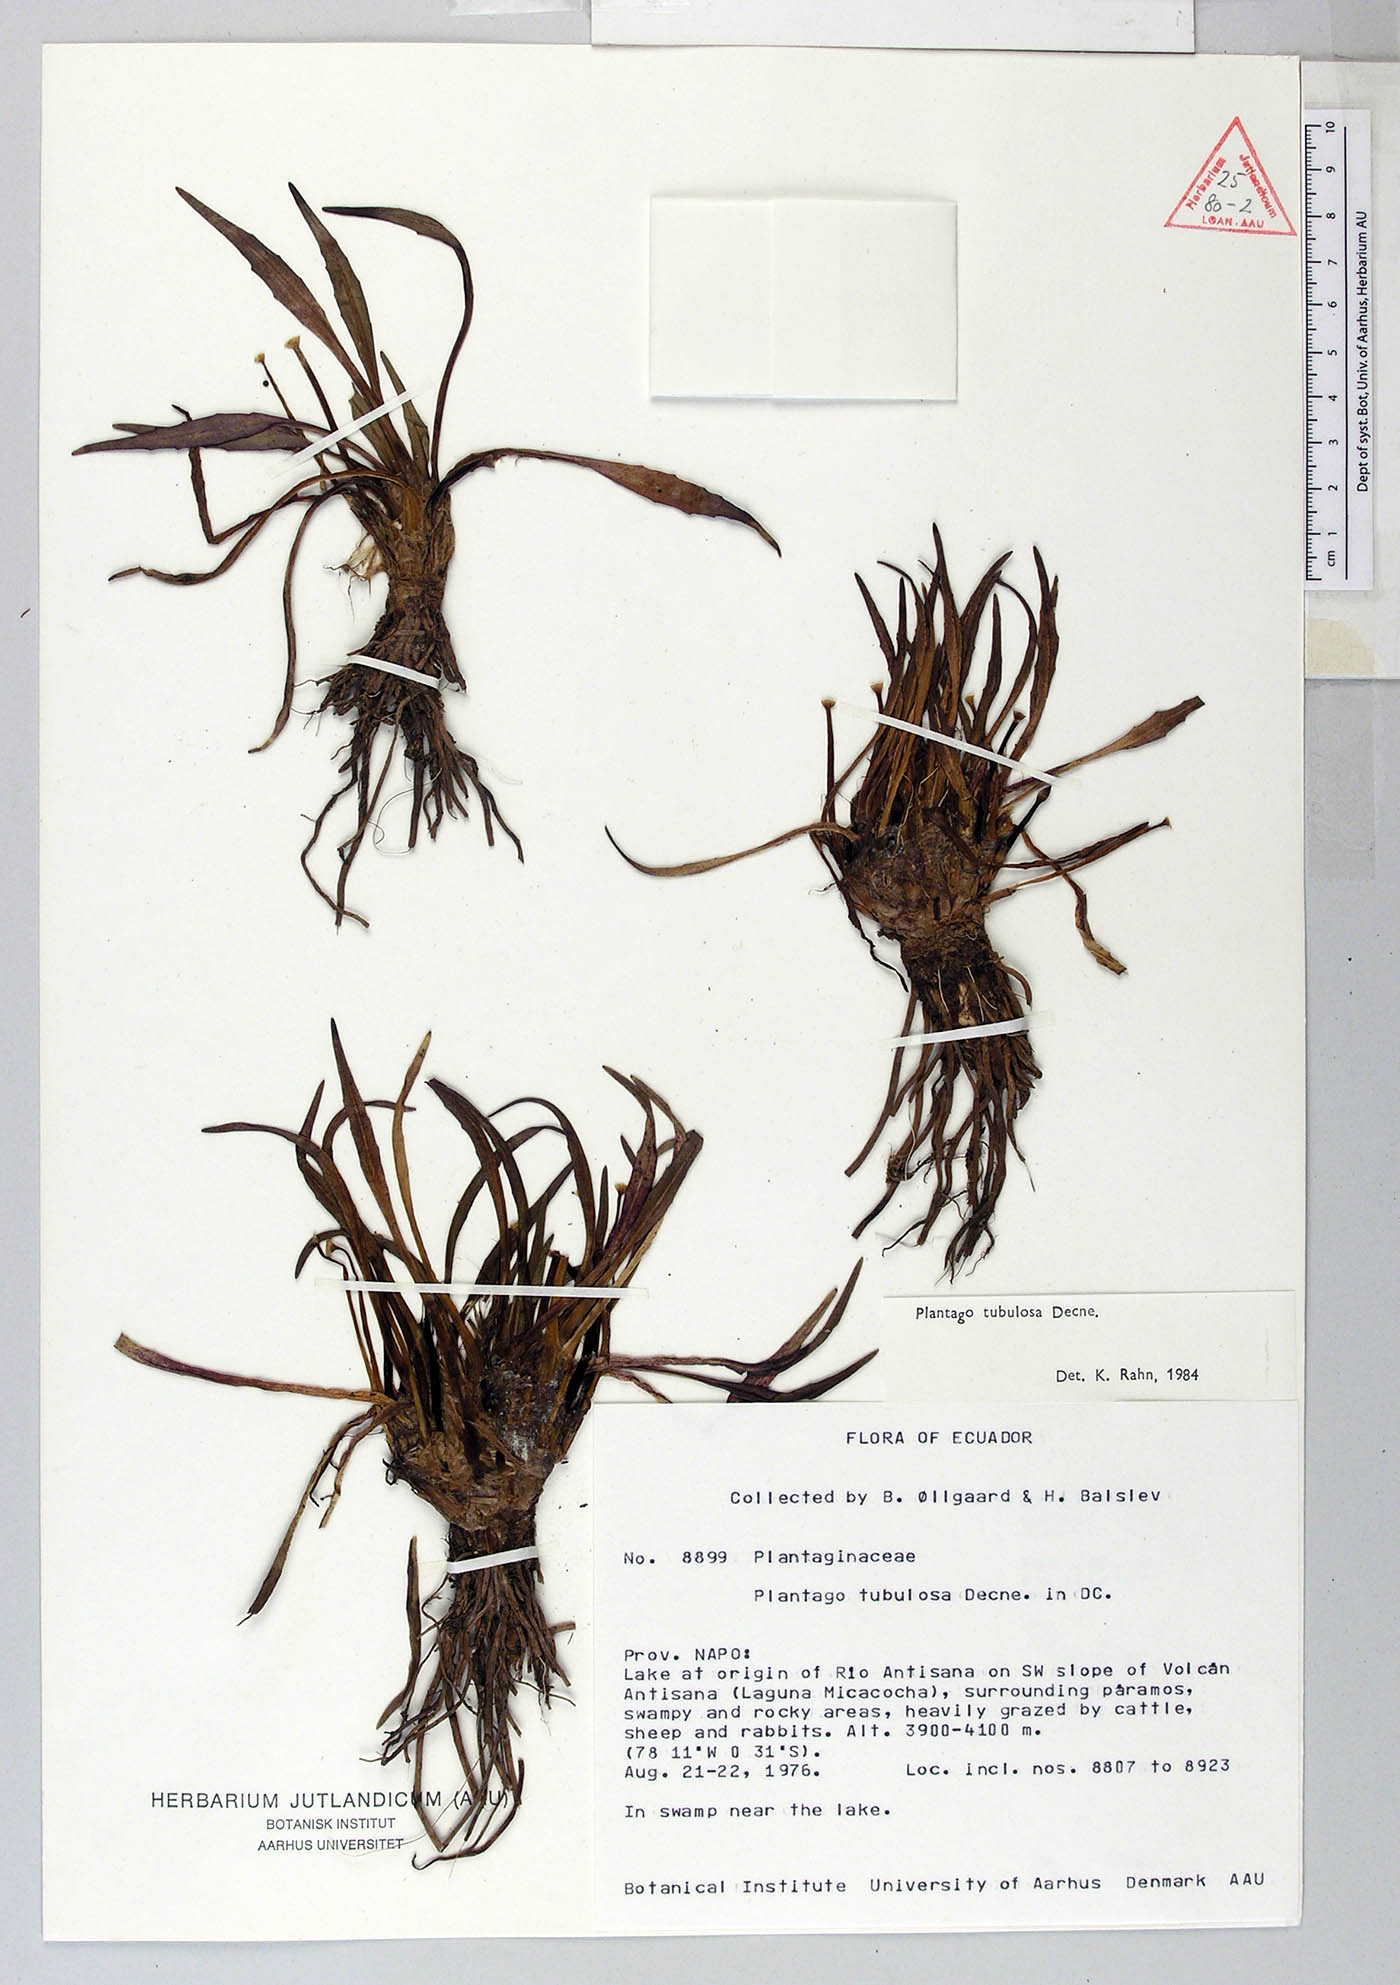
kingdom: Plantae
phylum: Tracheophyta
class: Magnoliopsida
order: Lamiales
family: Plantaginaceae
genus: Plantago
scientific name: Plantago tubulosa
